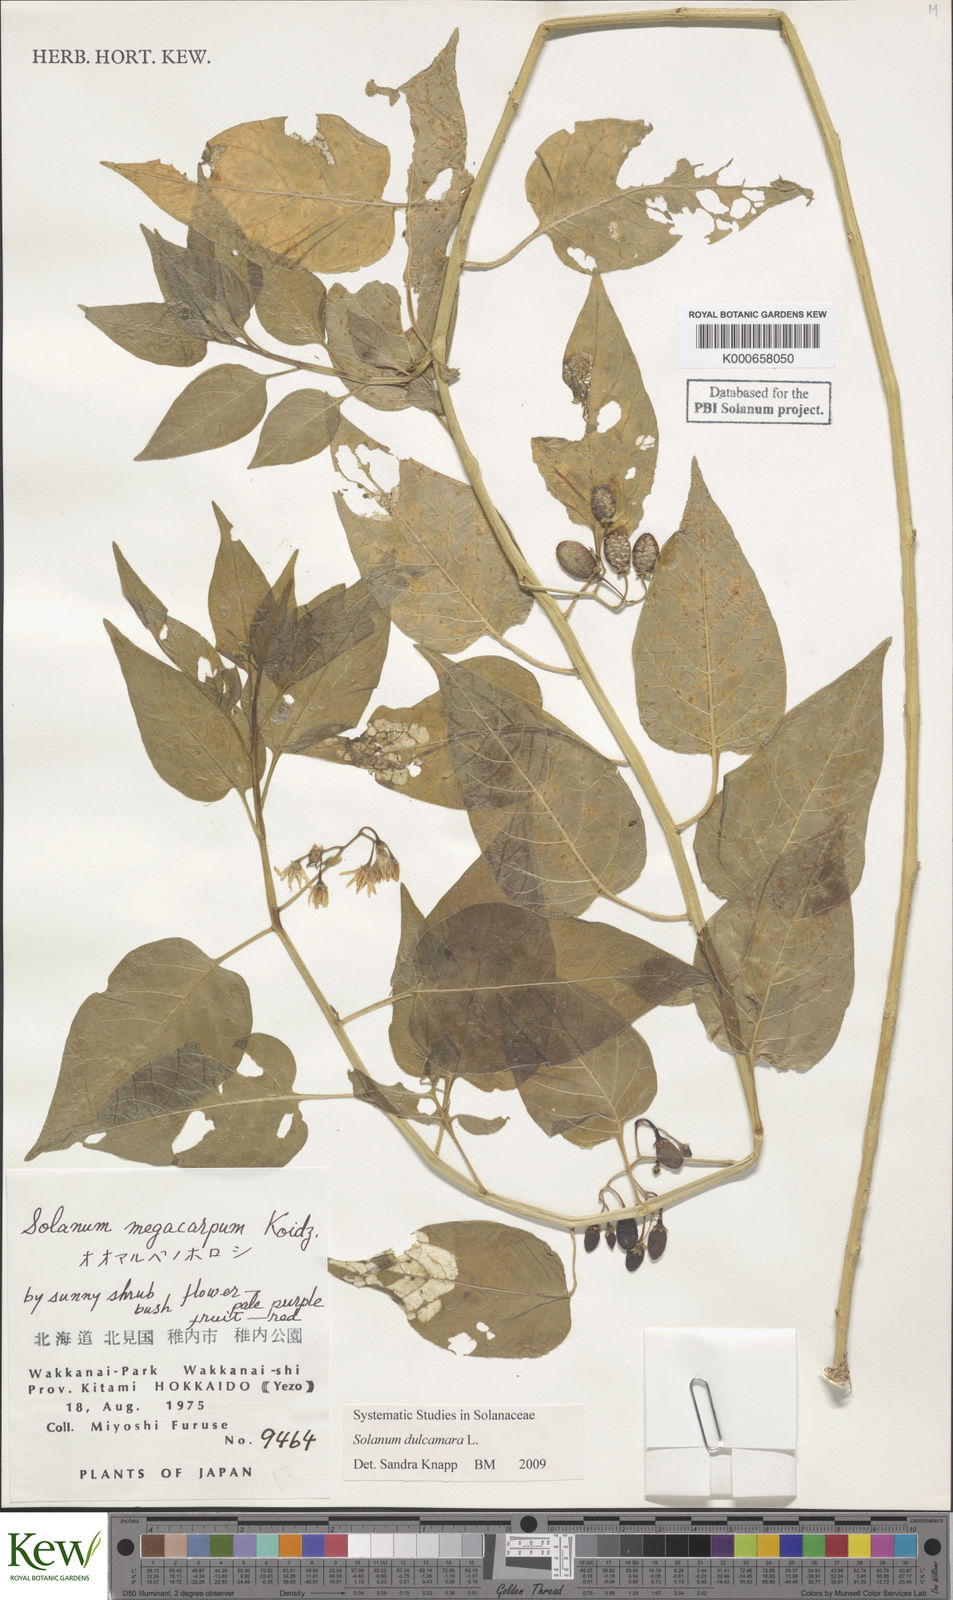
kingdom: Plantae
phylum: Tracheophyta
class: Magnoliopsida
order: Solanales
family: Solanaceae
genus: Solanum
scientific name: Solanum dulcamara
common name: Climbing nightshade
